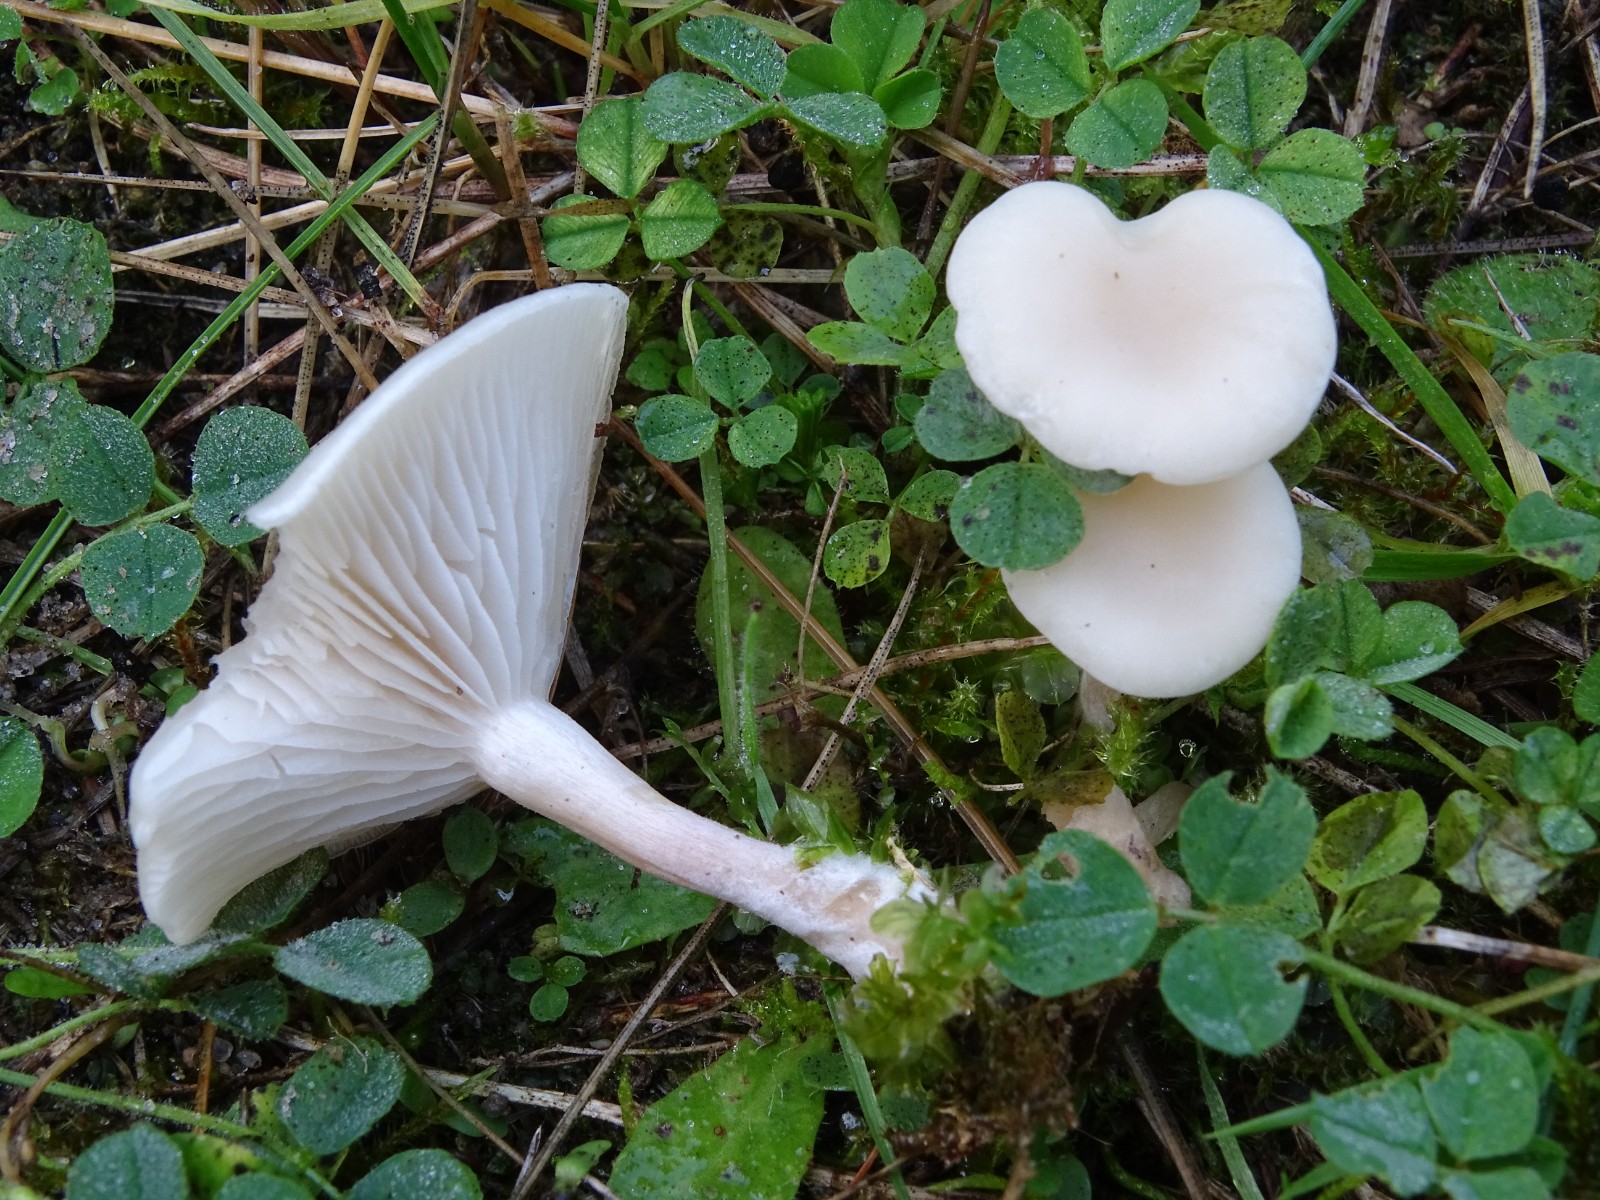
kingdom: Fungi
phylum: Basidiomycota
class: Agaricomycetes
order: Agaricales
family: Tricholomataceae
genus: Leucocybe
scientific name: Leucocybe candicans
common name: kridt-tragthat
